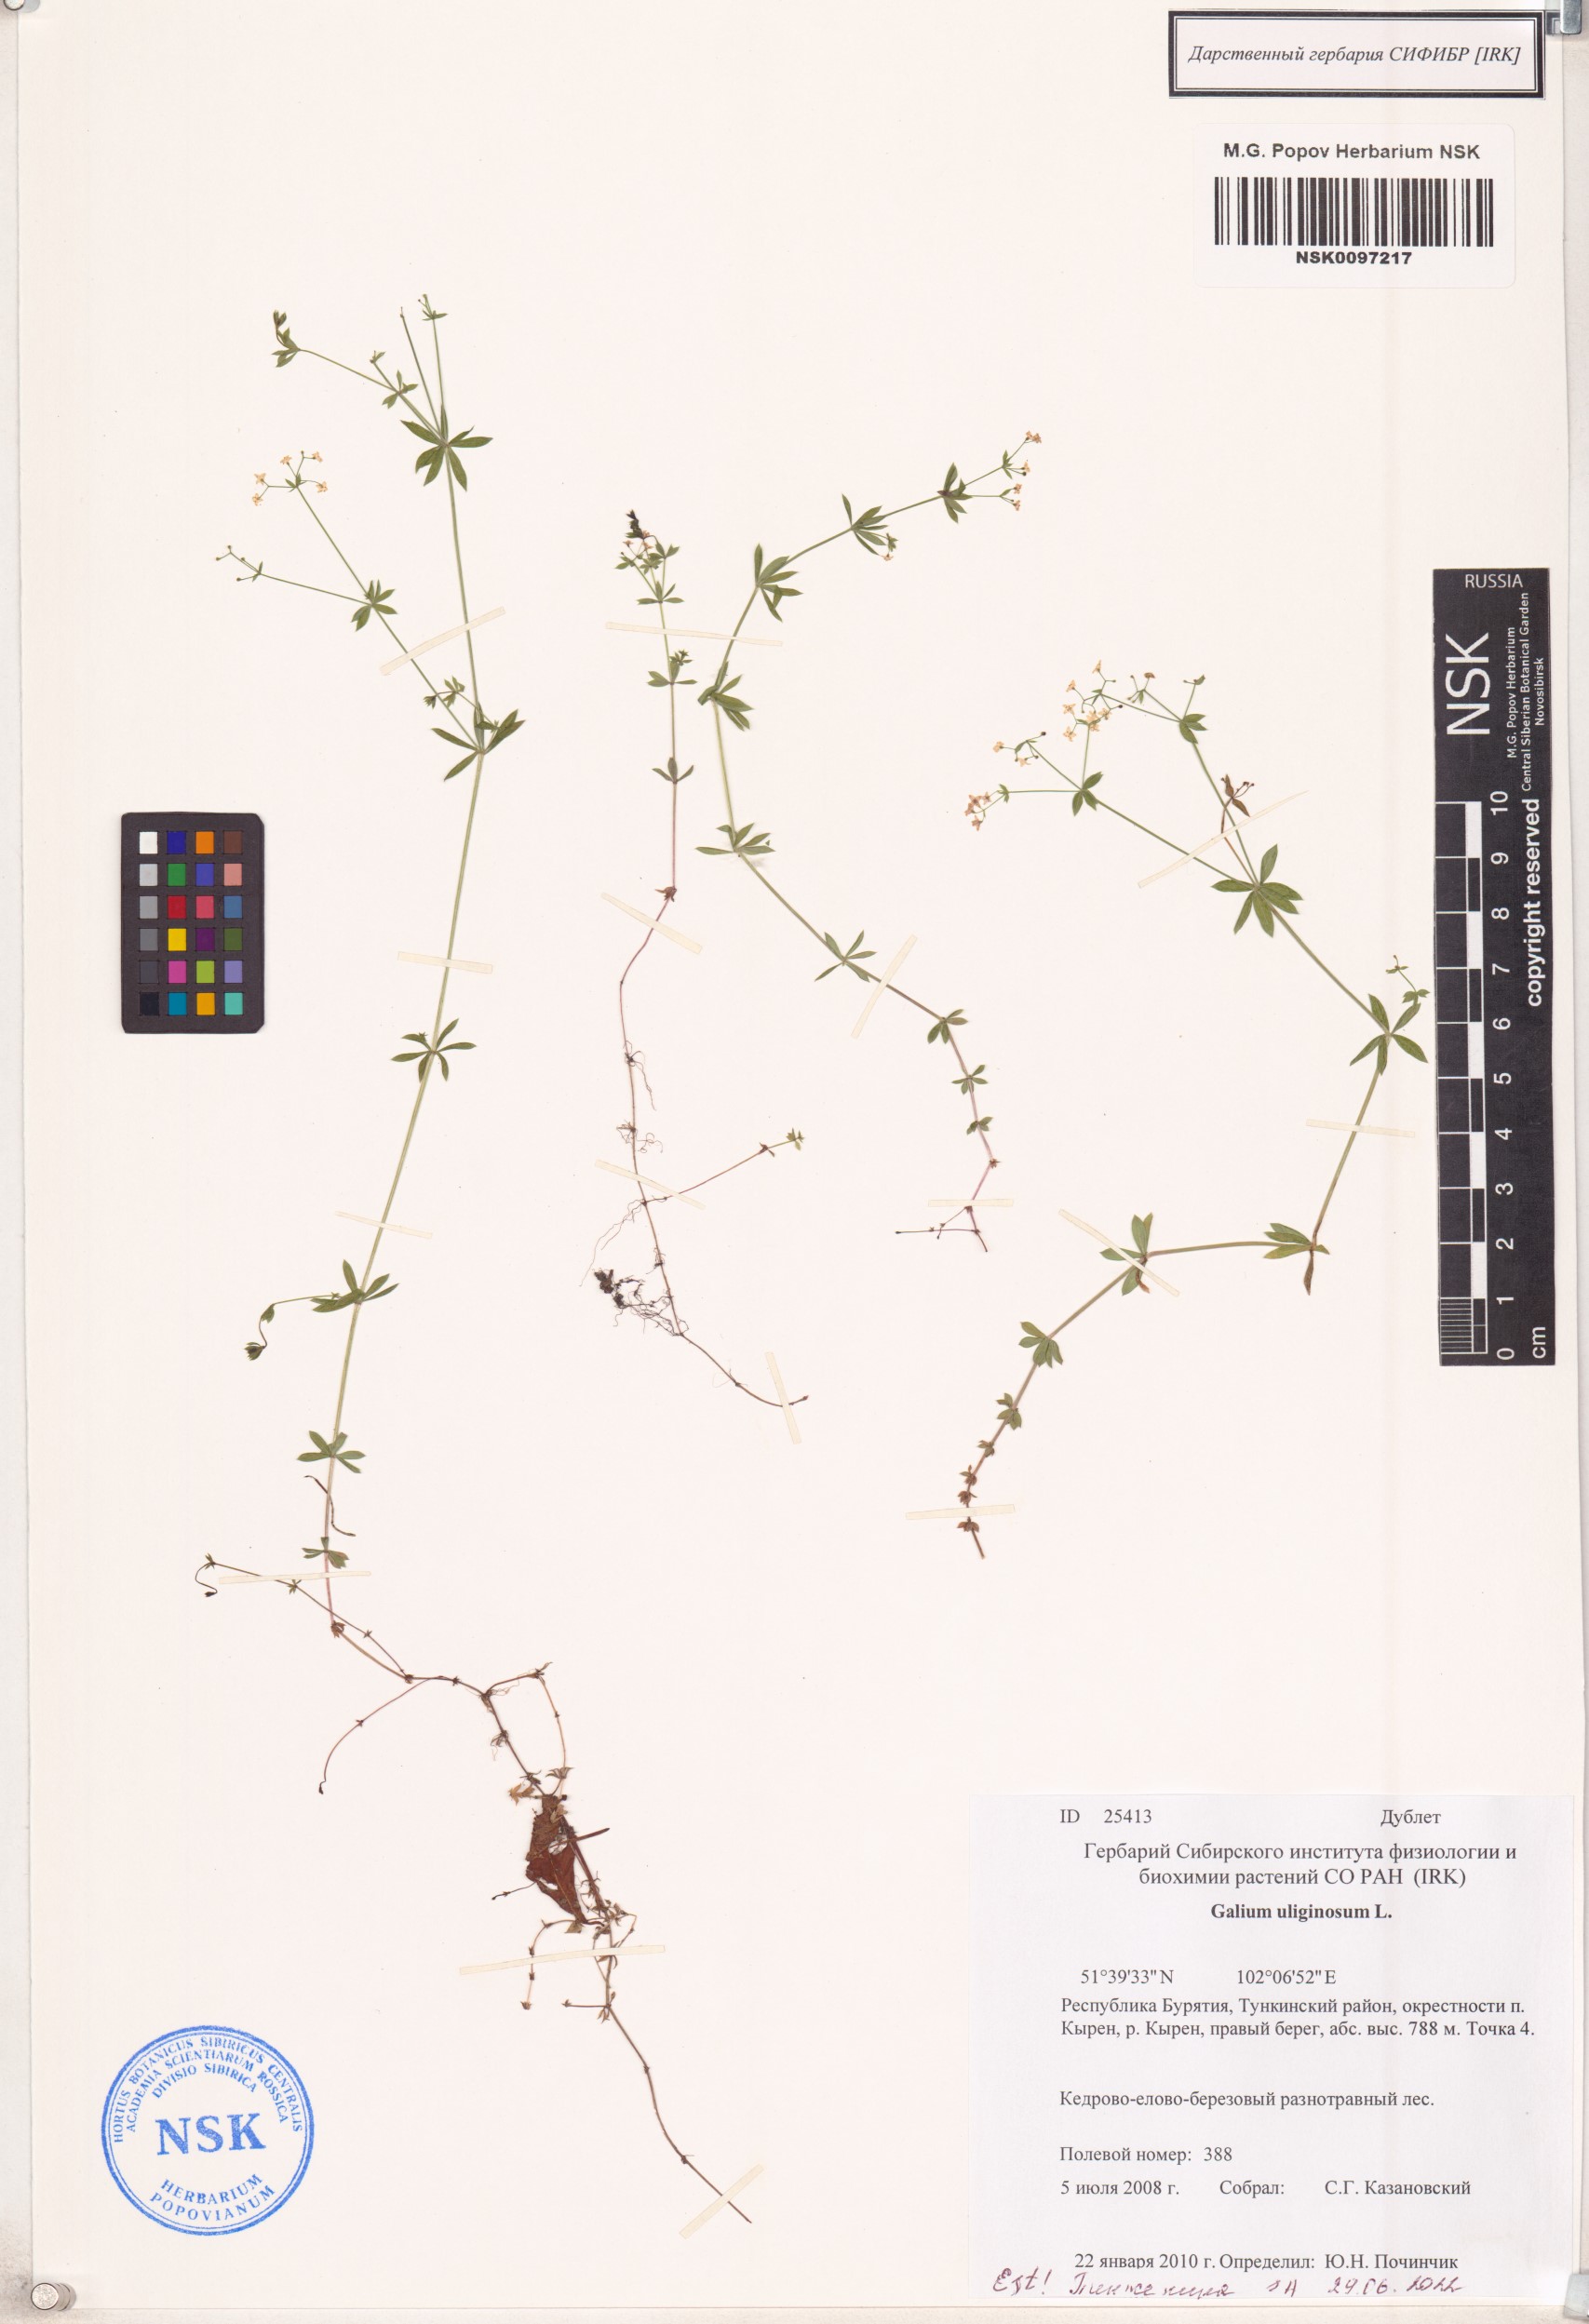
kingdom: Plantae
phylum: Tracheophyta
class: Magnoliopsida
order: Gentianales
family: Rubiaceae
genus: Galium
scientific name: Galium uliginosum
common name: Fen bedstraw
